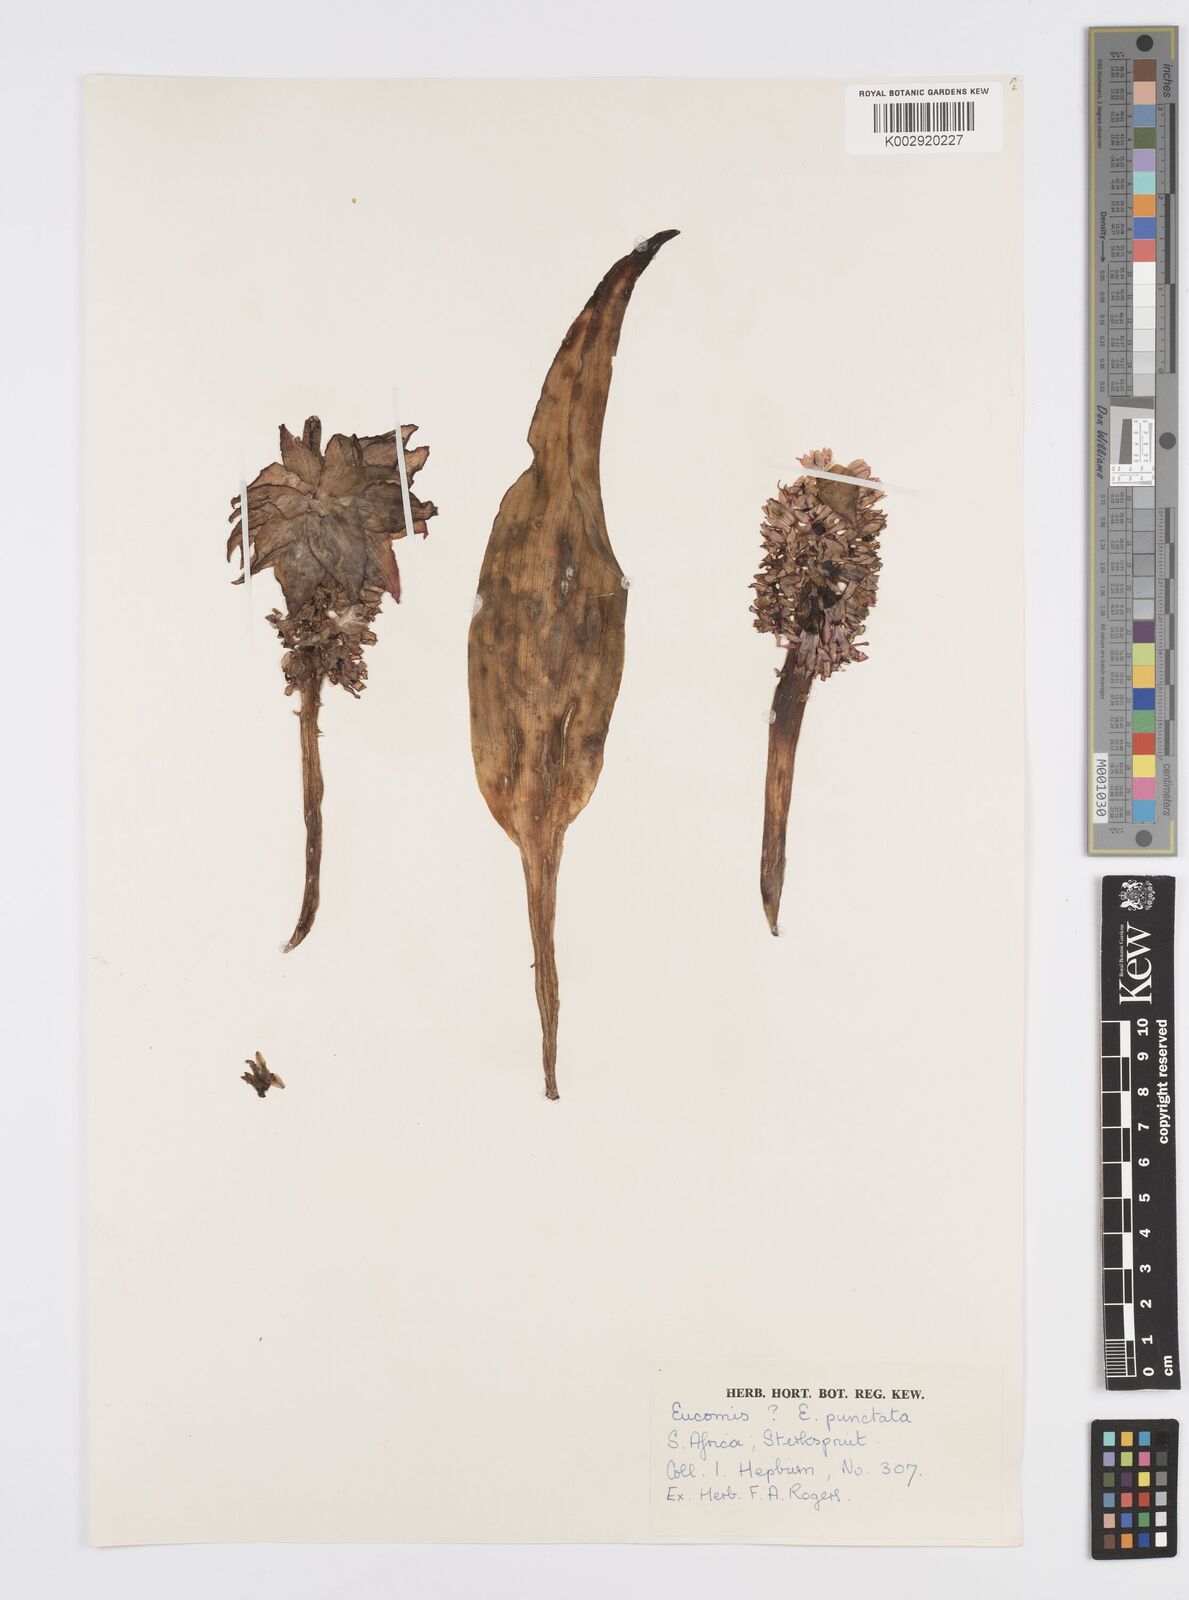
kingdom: Plantae
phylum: Tracheophyta
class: Liliopsida
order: Asparagales
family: Asparagaceae
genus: Eucomis
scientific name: Eucomis schijffii
